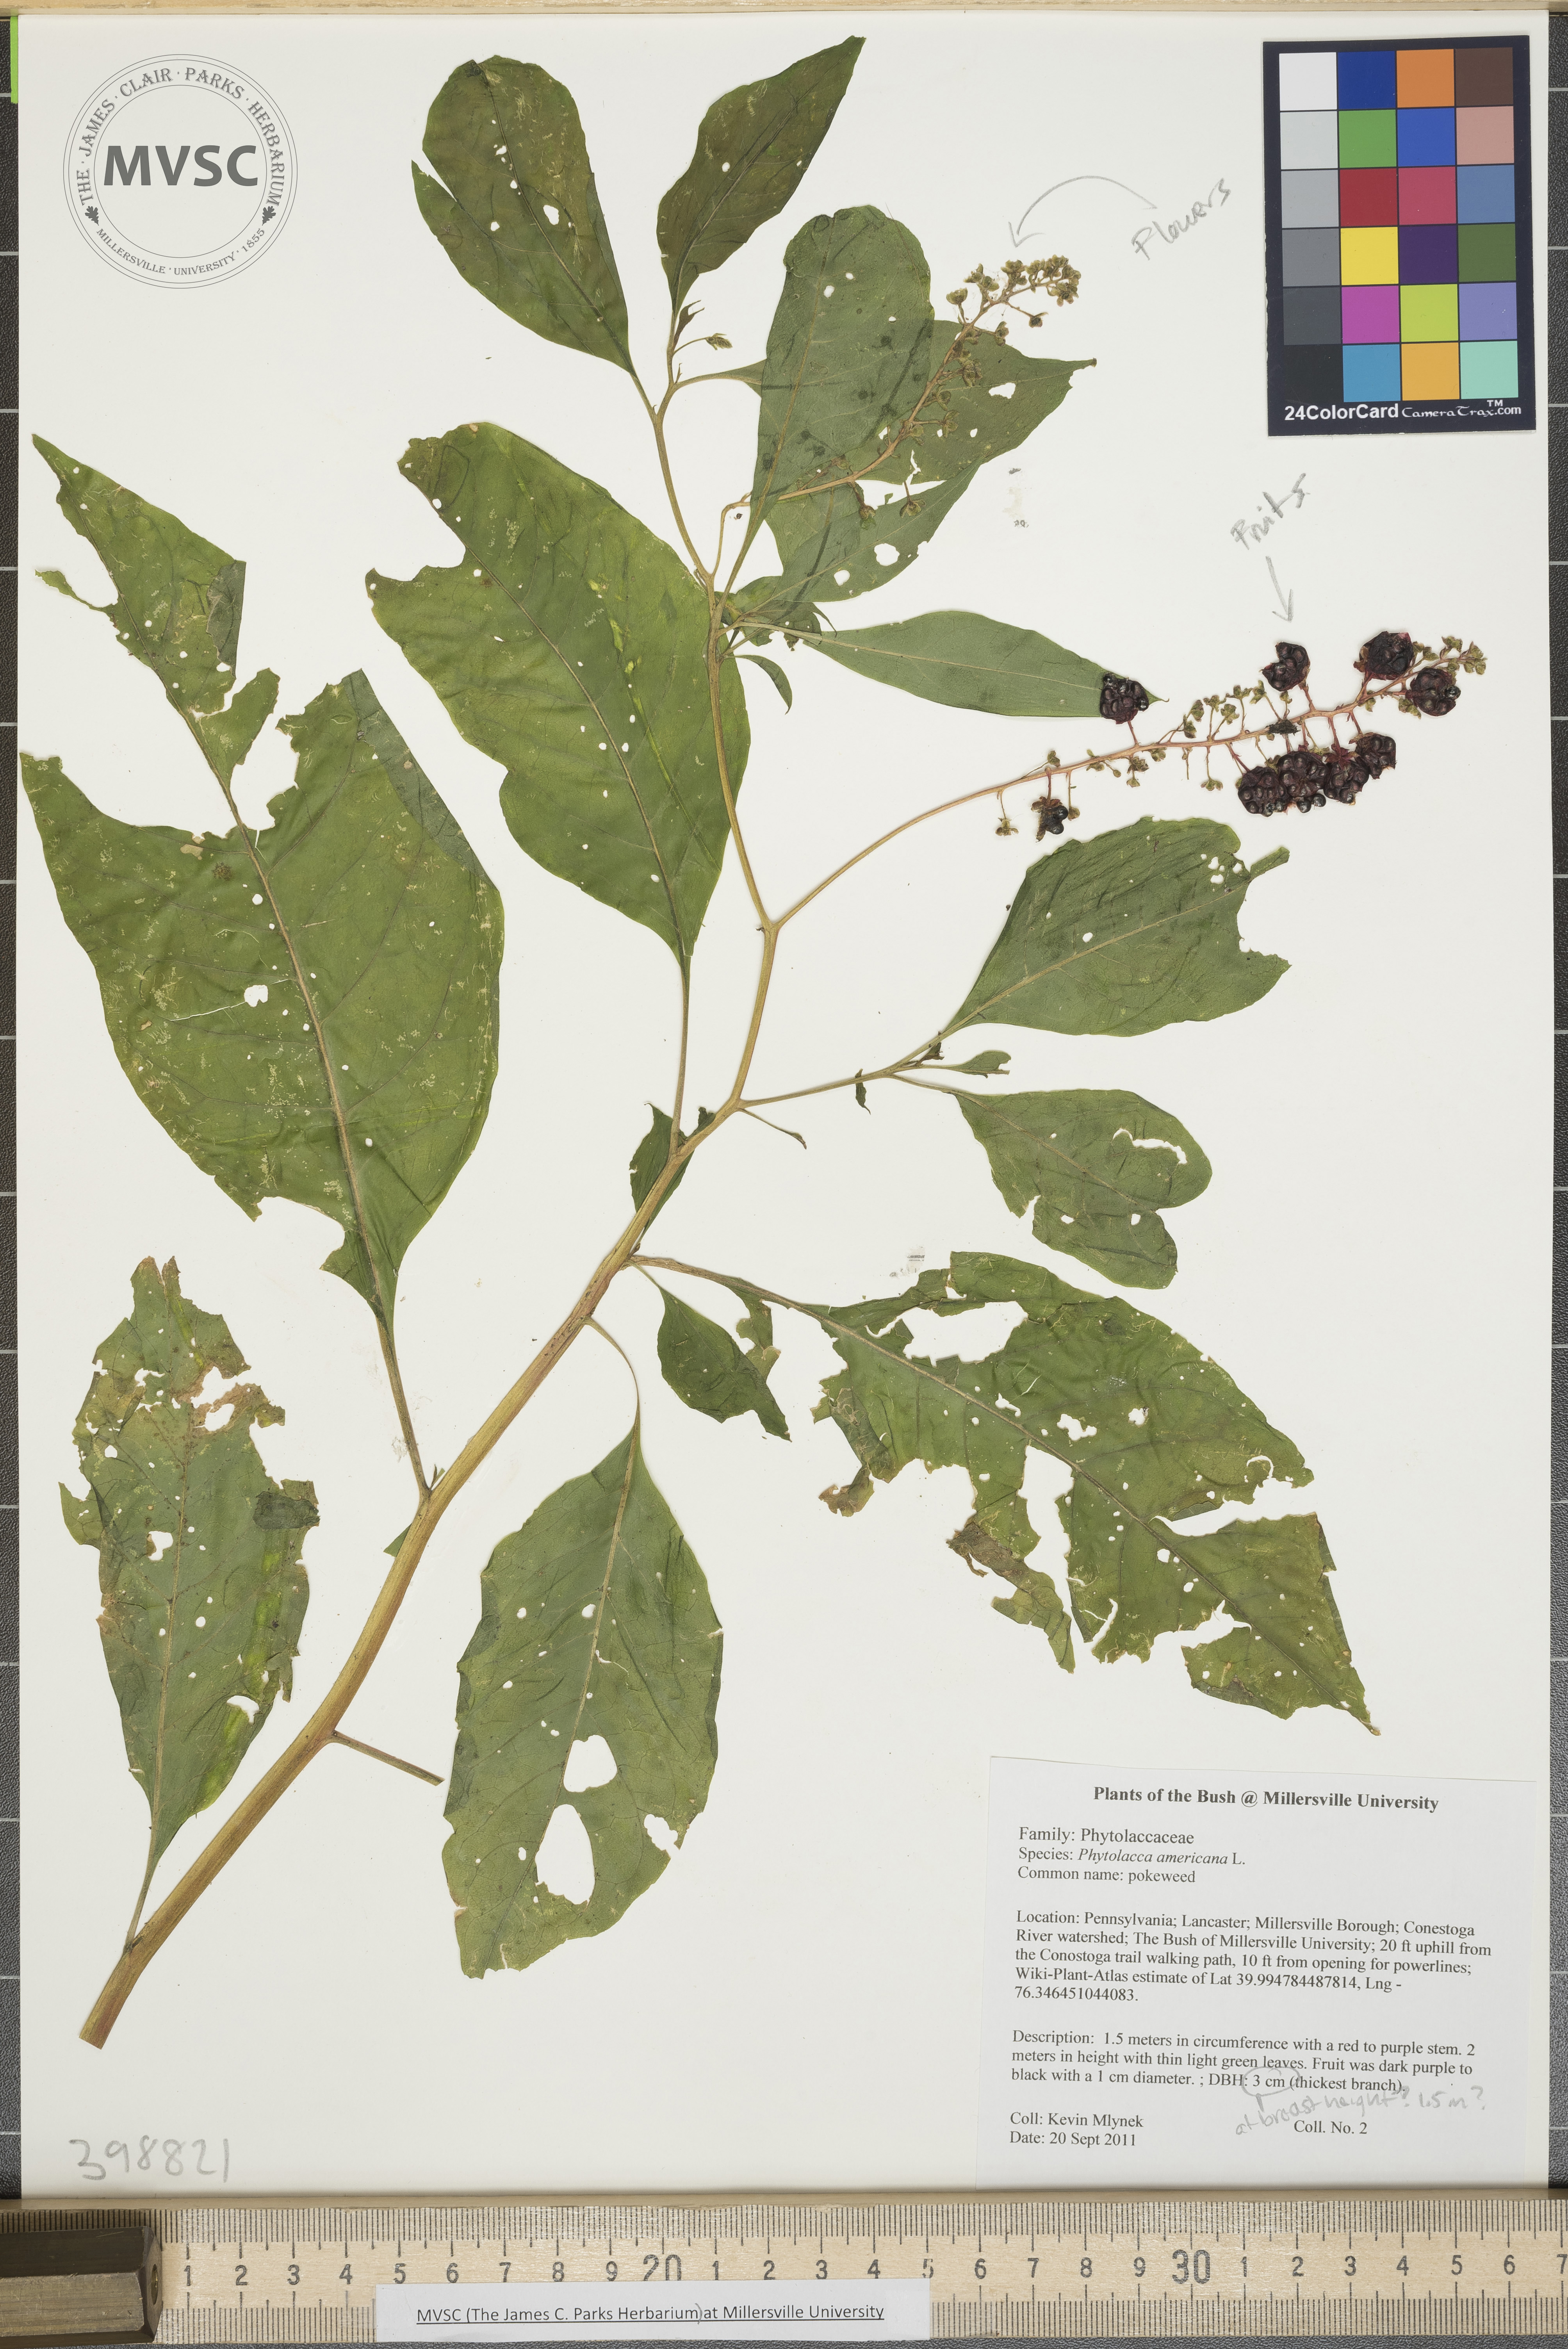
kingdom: Plantae
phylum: Tracheophyta
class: Magnoliopsida
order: Caryophyllales
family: Phytolaccaceae
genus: Phytolacca
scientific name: Phytolacca americana
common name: Pokeweed
